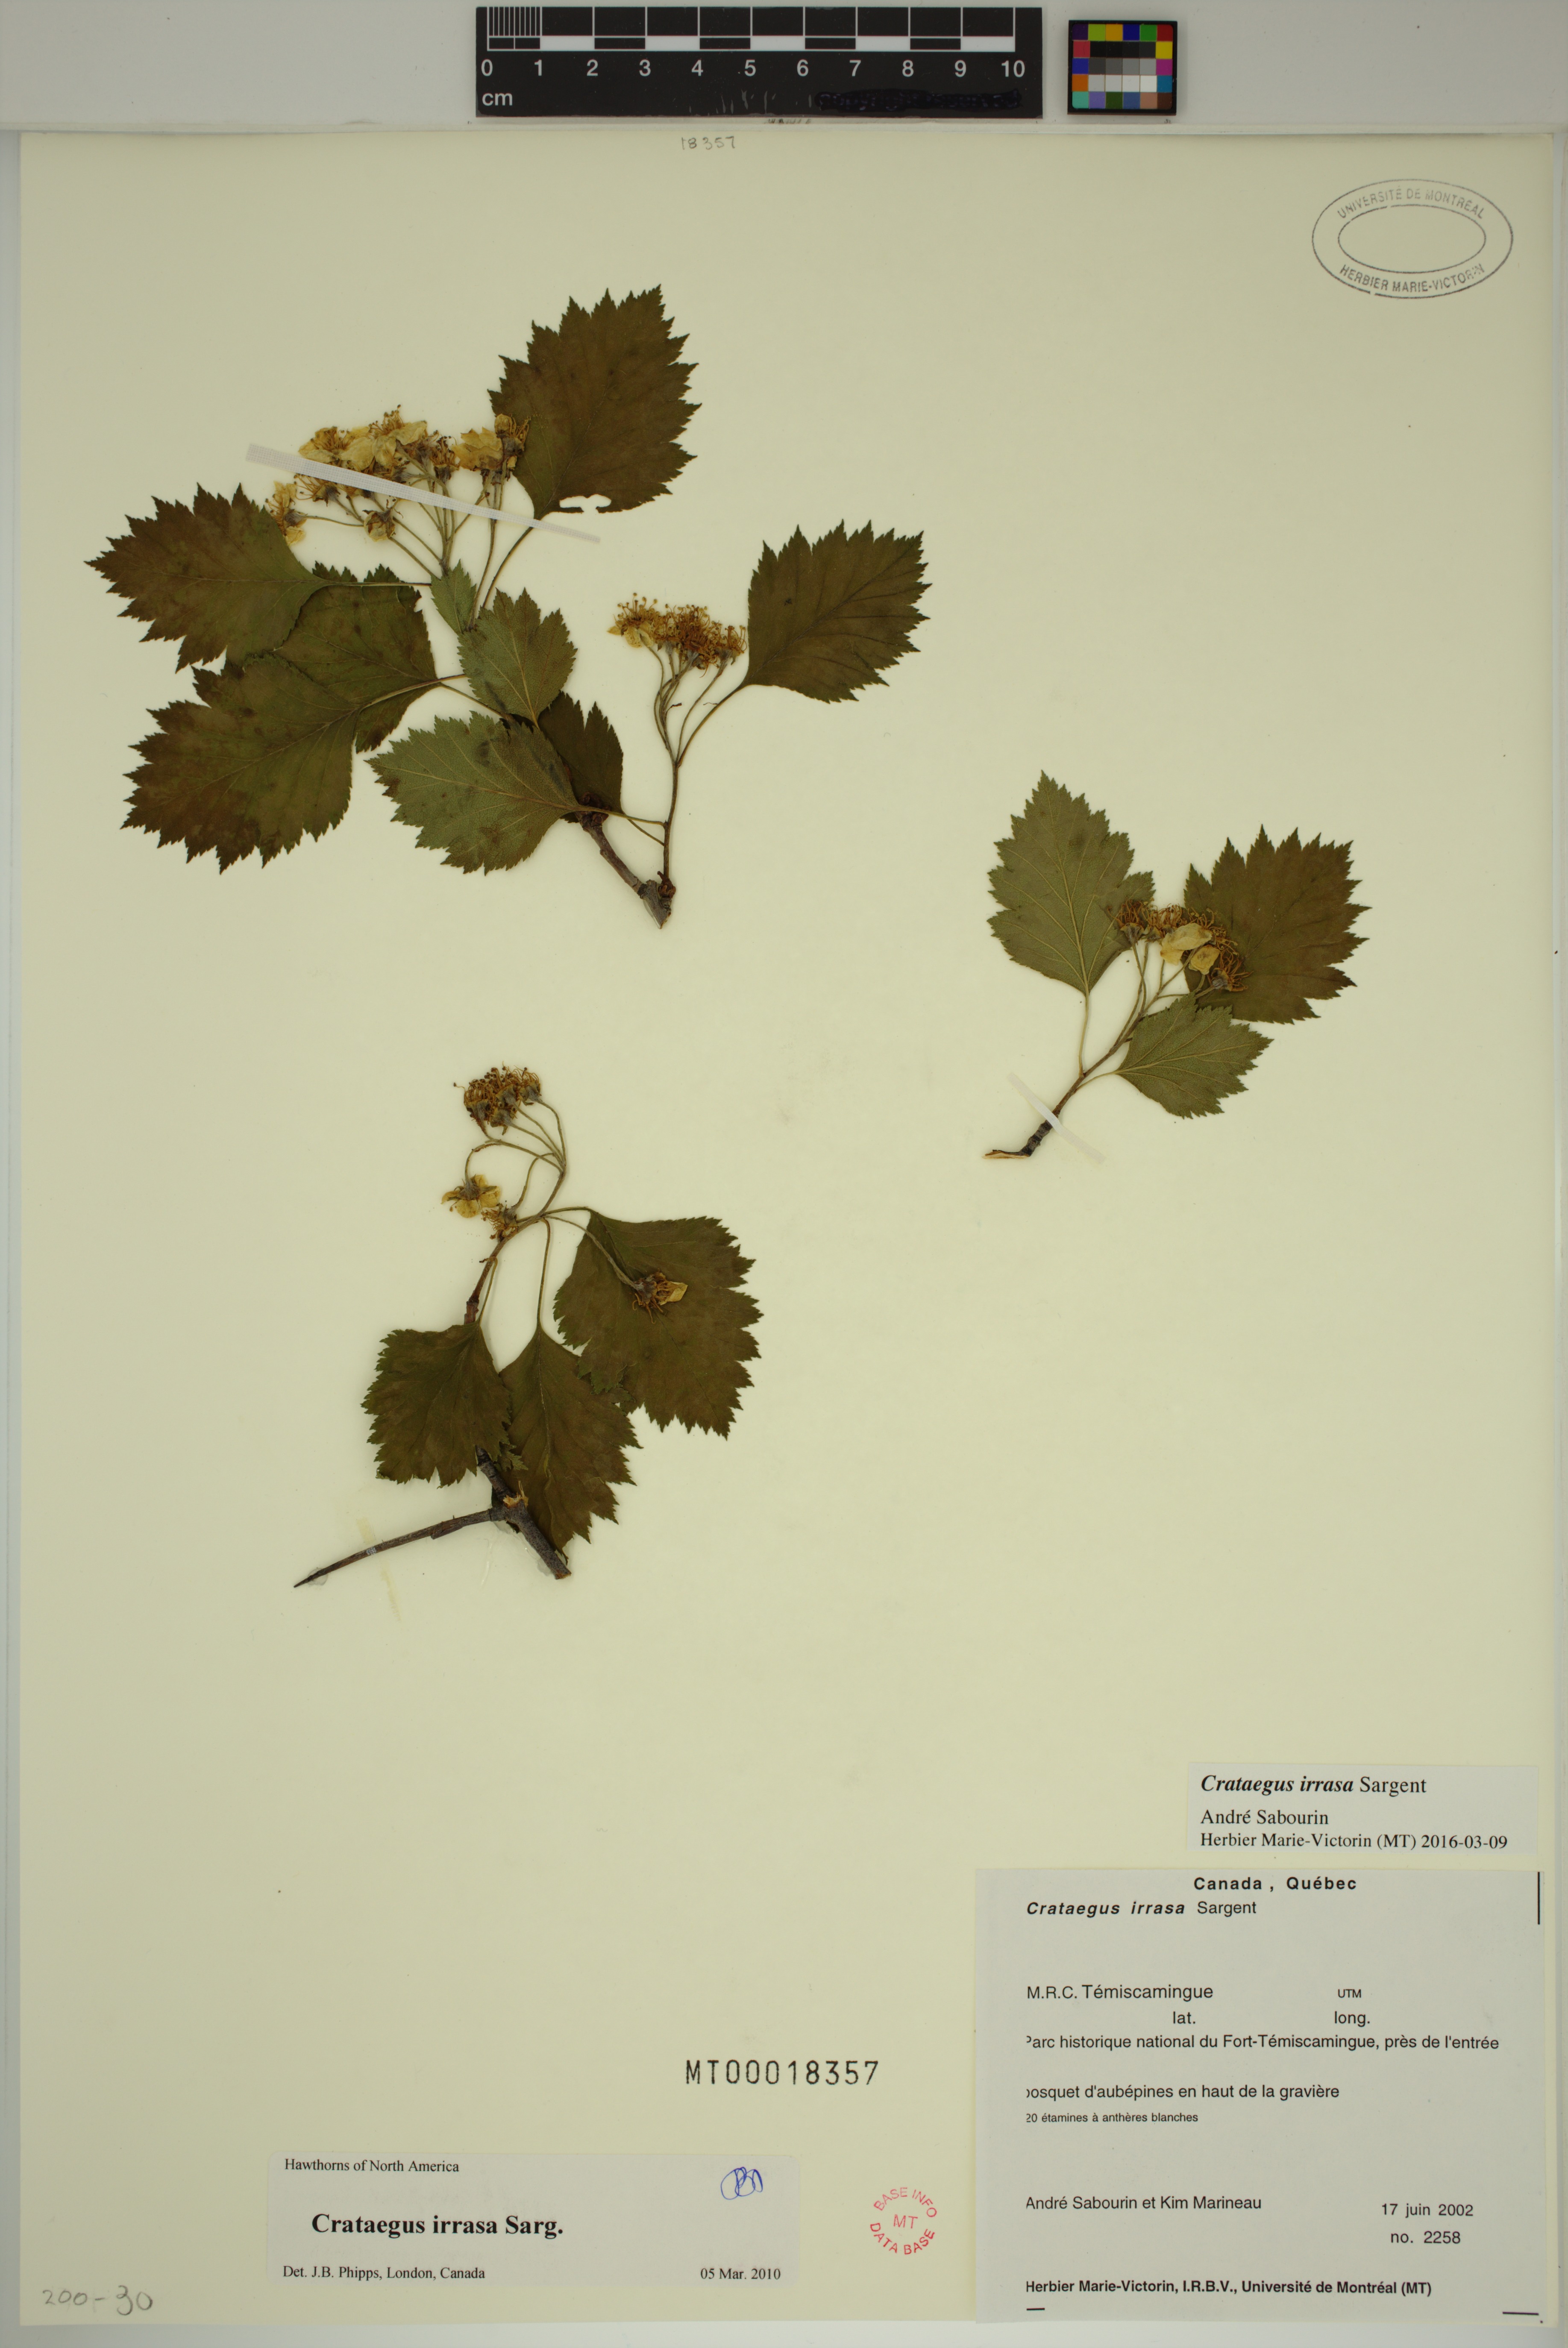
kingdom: Plantae
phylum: Tracheophyta
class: Magnoliopsida
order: Rosales
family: Rosaceae
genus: Crataegus
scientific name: Crataegus irrasa
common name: Unshorn hawthorn
